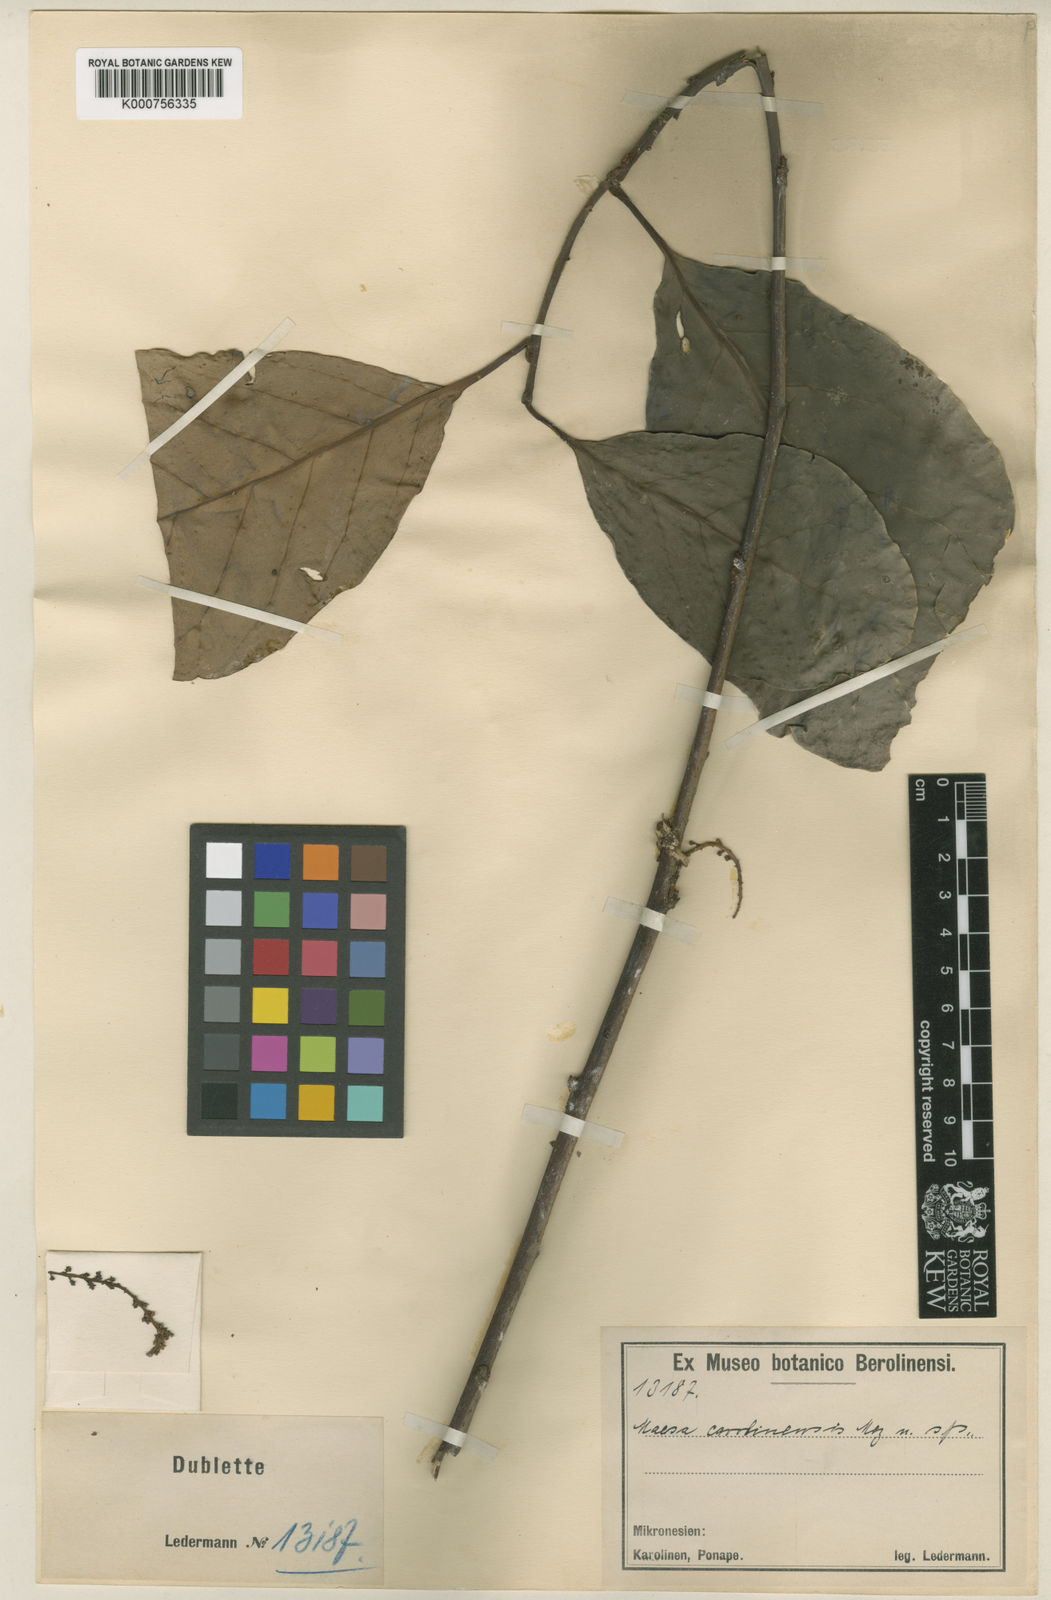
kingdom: Plantae
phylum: Tracheophyta
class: Magnoliopsida
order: Ericales
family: Primulaceae
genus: Maesa
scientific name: Maesa carolinensis
